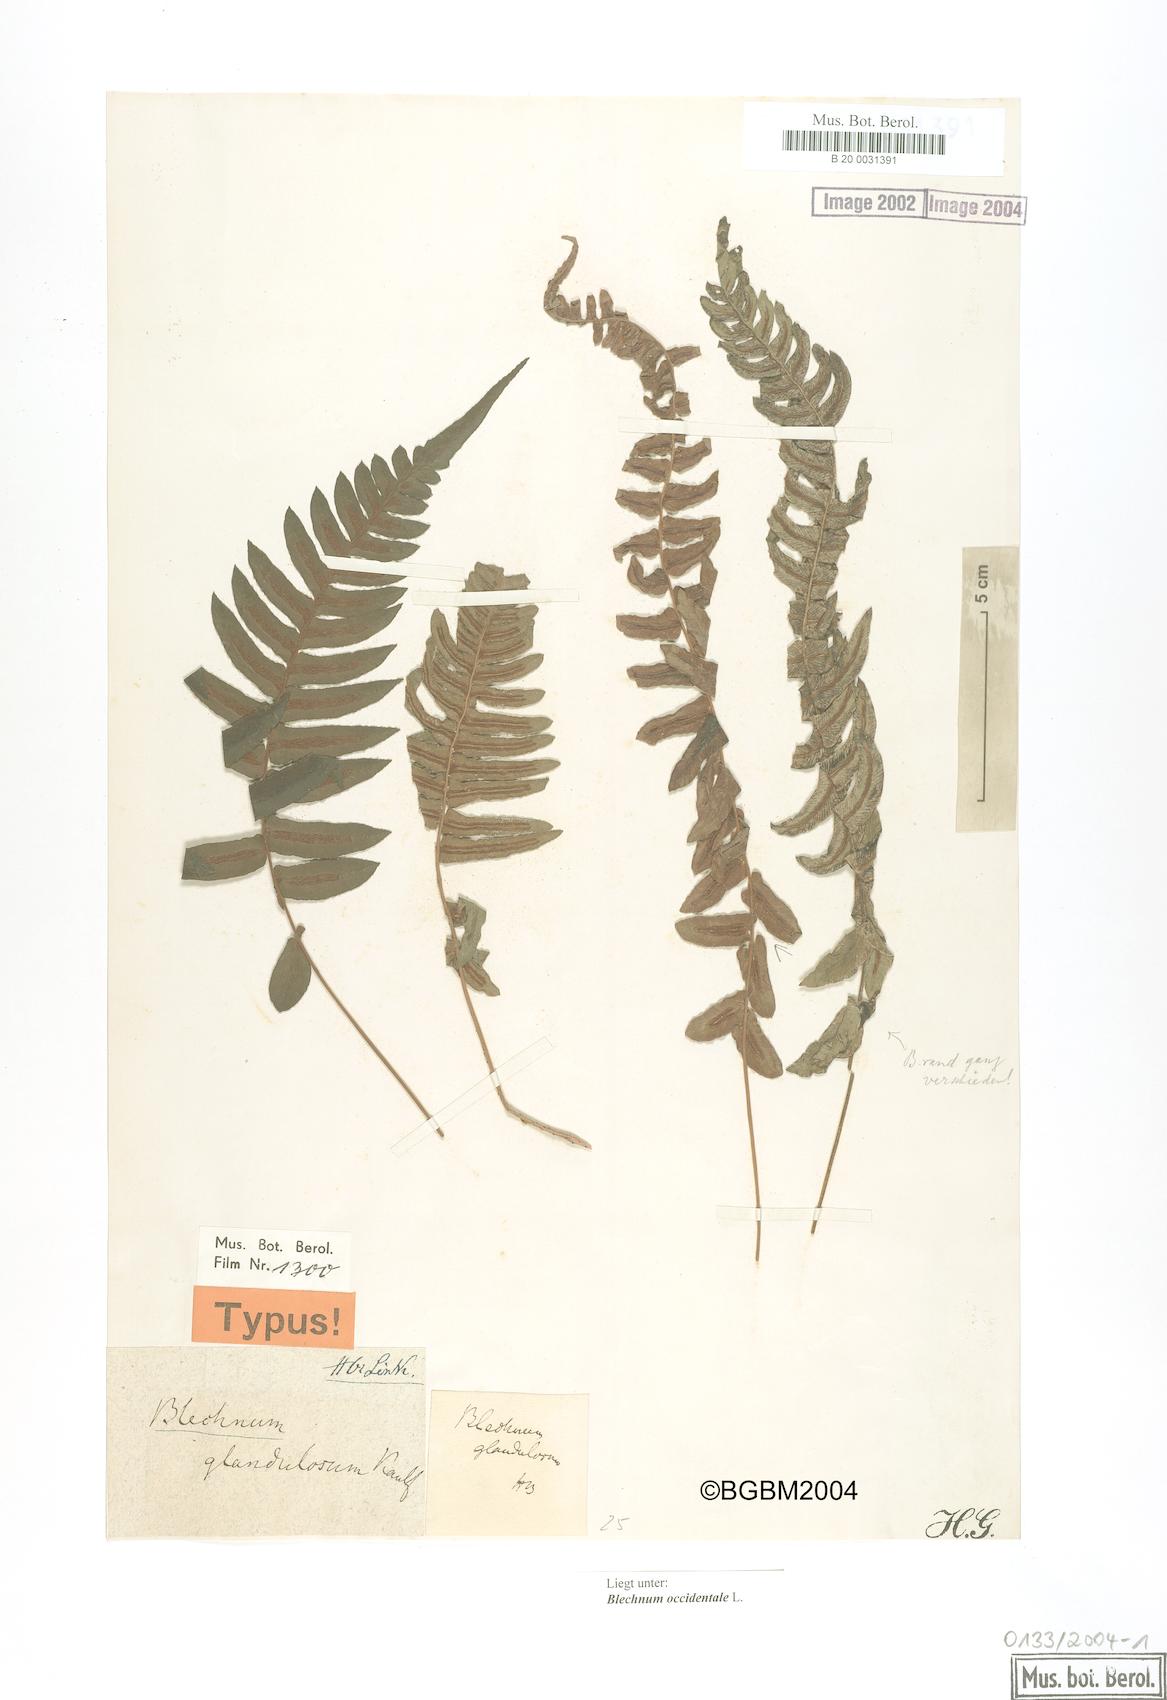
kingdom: Plantae
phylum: Tracheophyta
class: Polypodiopsida
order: Polypodiales
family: Blechnaceae
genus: Blechnum
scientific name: Blechnum appendiculatum
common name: Palm fern
